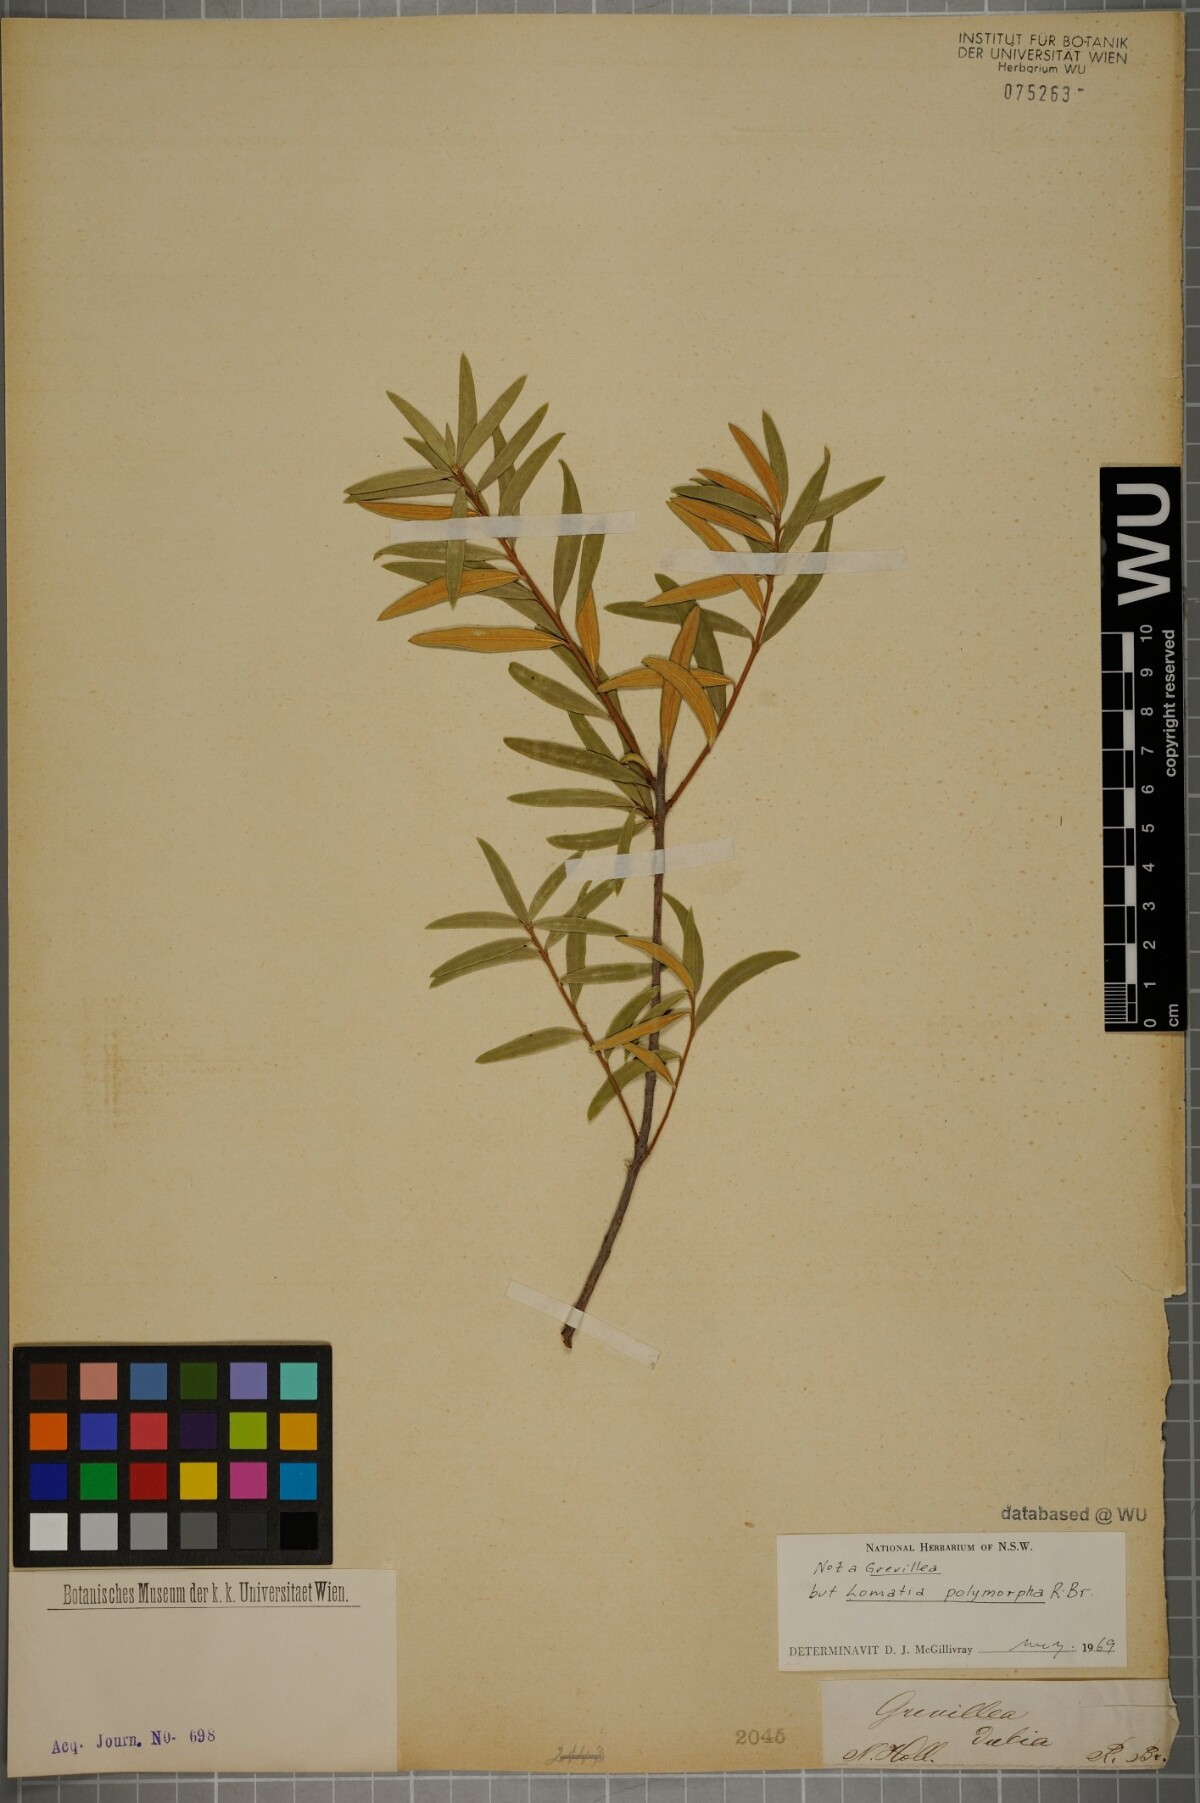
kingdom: Plantae
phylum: Tracheophyta
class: Magnoliopsida
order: Proteales
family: Proteaceae
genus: Lomatia
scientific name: Lomatia polymorpha
